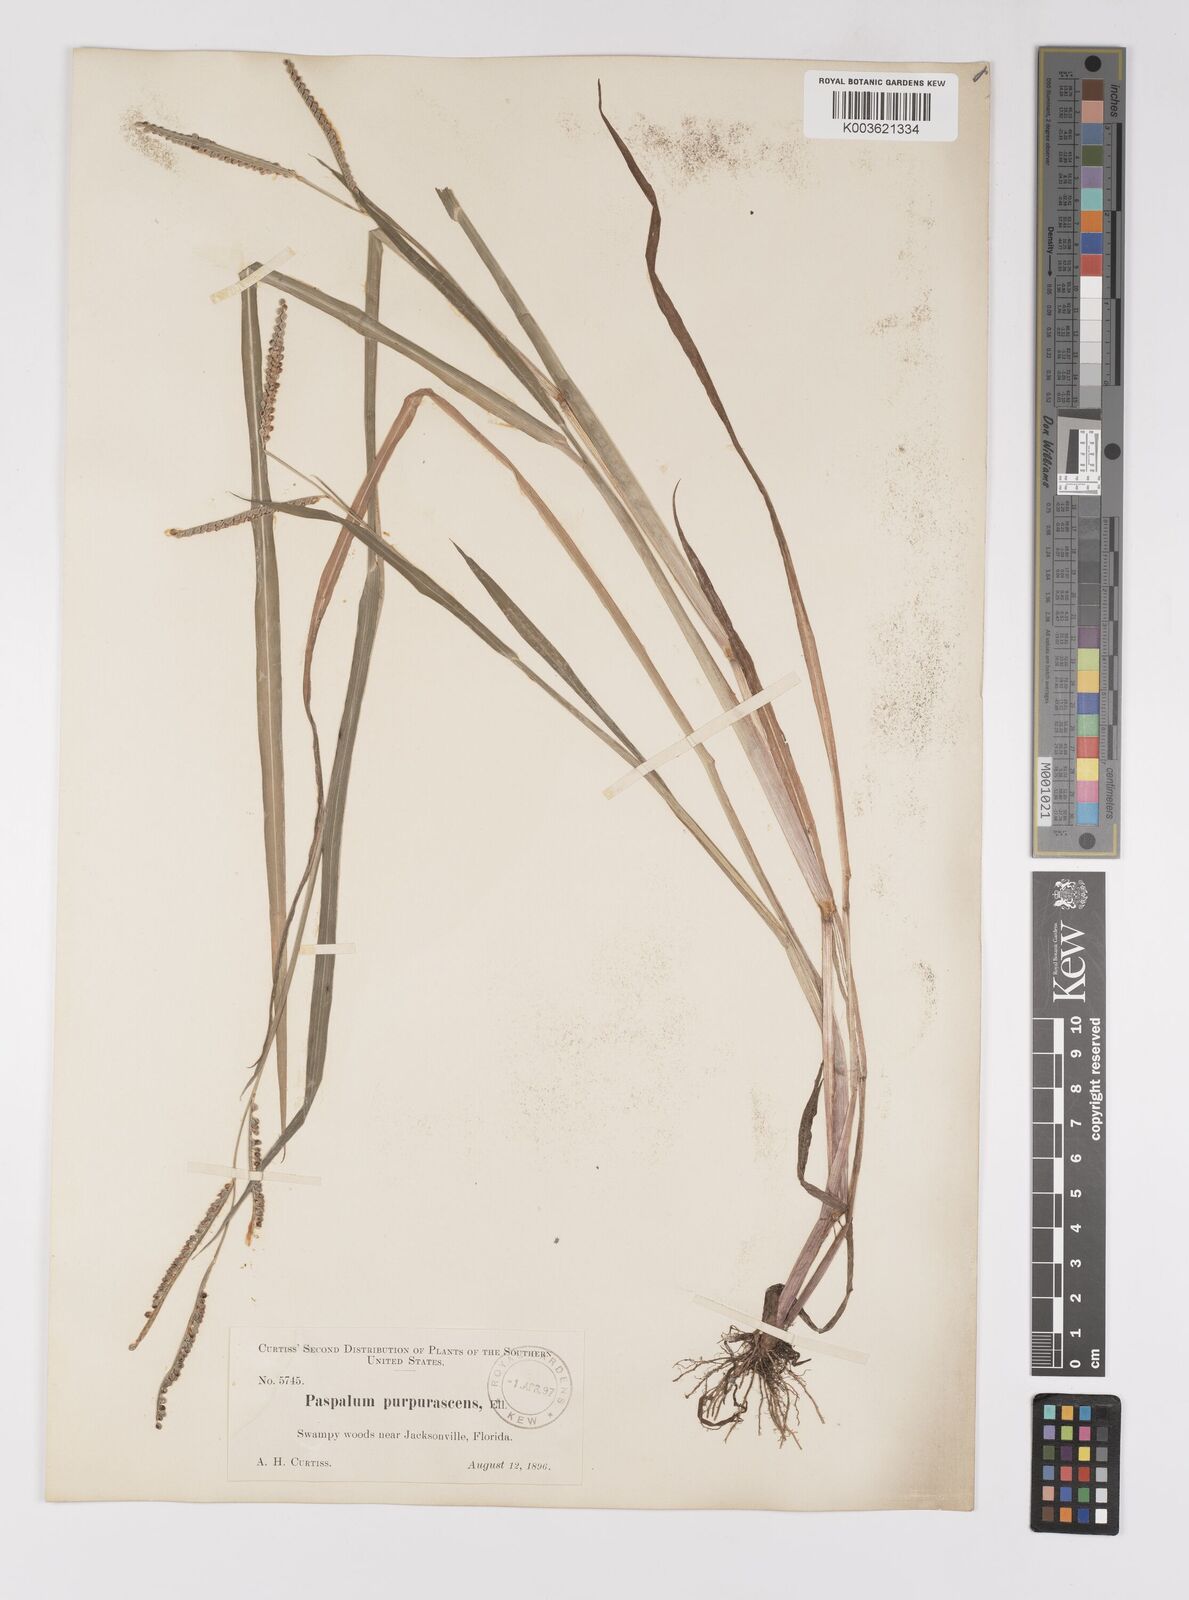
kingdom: Plantae
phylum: Tracheophyta
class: Liliopsida
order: Poales
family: Poaceae
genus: Paspalum
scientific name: Paspalum scrobiculatum
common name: Kodo millet
